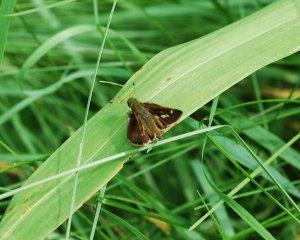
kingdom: Animalia
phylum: Arthropoda
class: Insecta
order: Lepidoptera
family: Hesperiidae
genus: Vernia
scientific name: Vernia verna
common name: Little Glassywing
